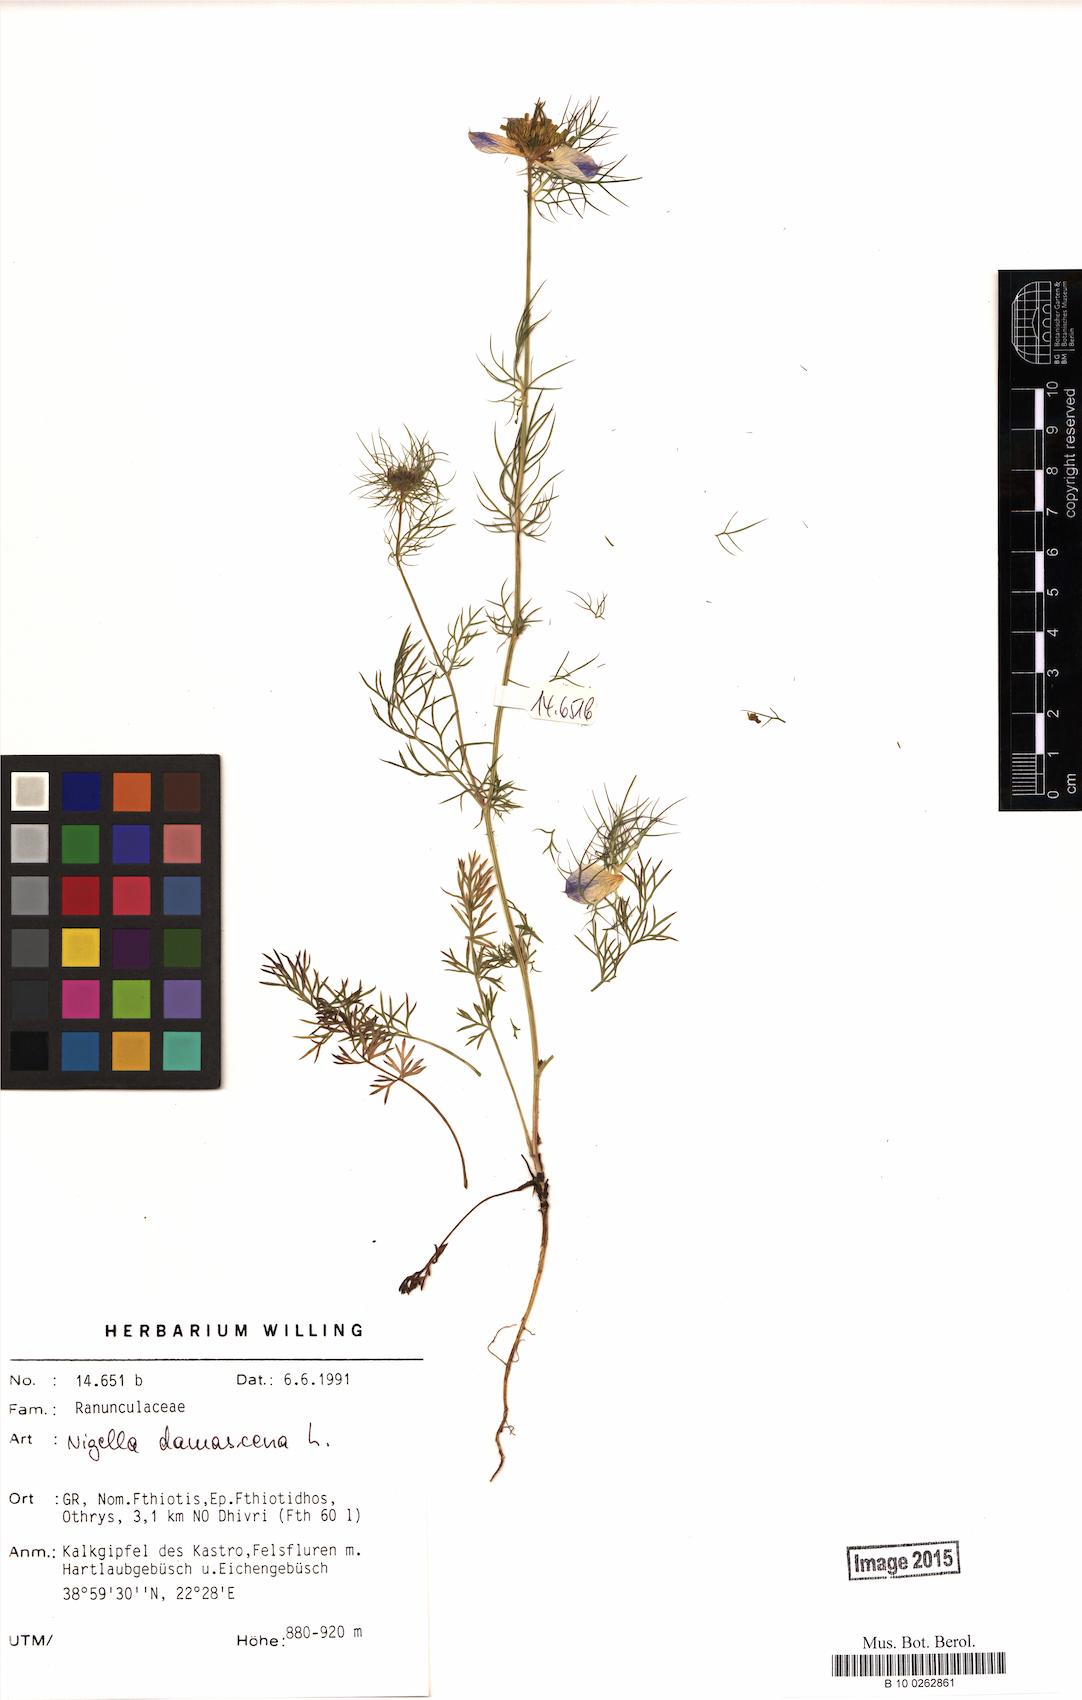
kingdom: Plantae
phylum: Tracheophyta
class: Magnoliopsida
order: Ranunculales
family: Ranunculaceae
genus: Nigella
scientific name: Nigella damascena
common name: Love-in-a-mist
